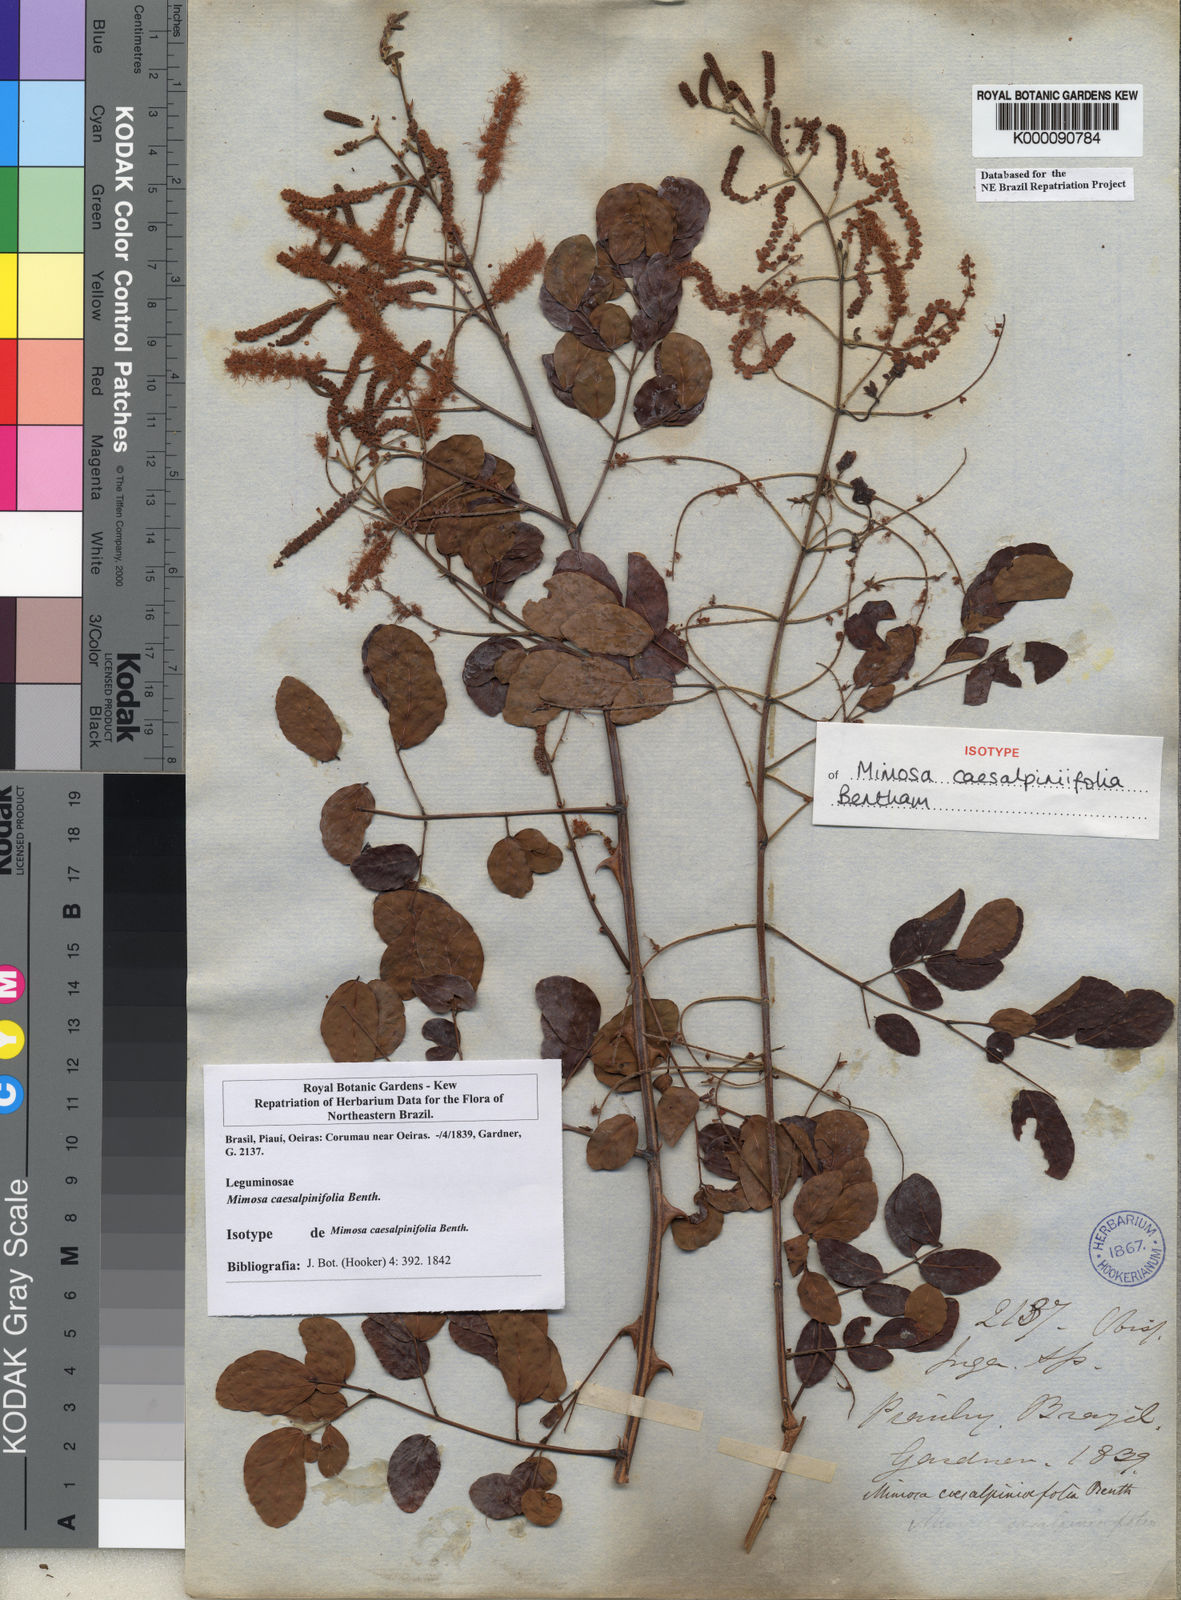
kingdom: Plantae
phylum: Tracheophyta
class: Magnoliopsida
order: Fabales
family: Fabaceae
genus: Mimosa
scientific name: Mimosa caesalpiniifolia
